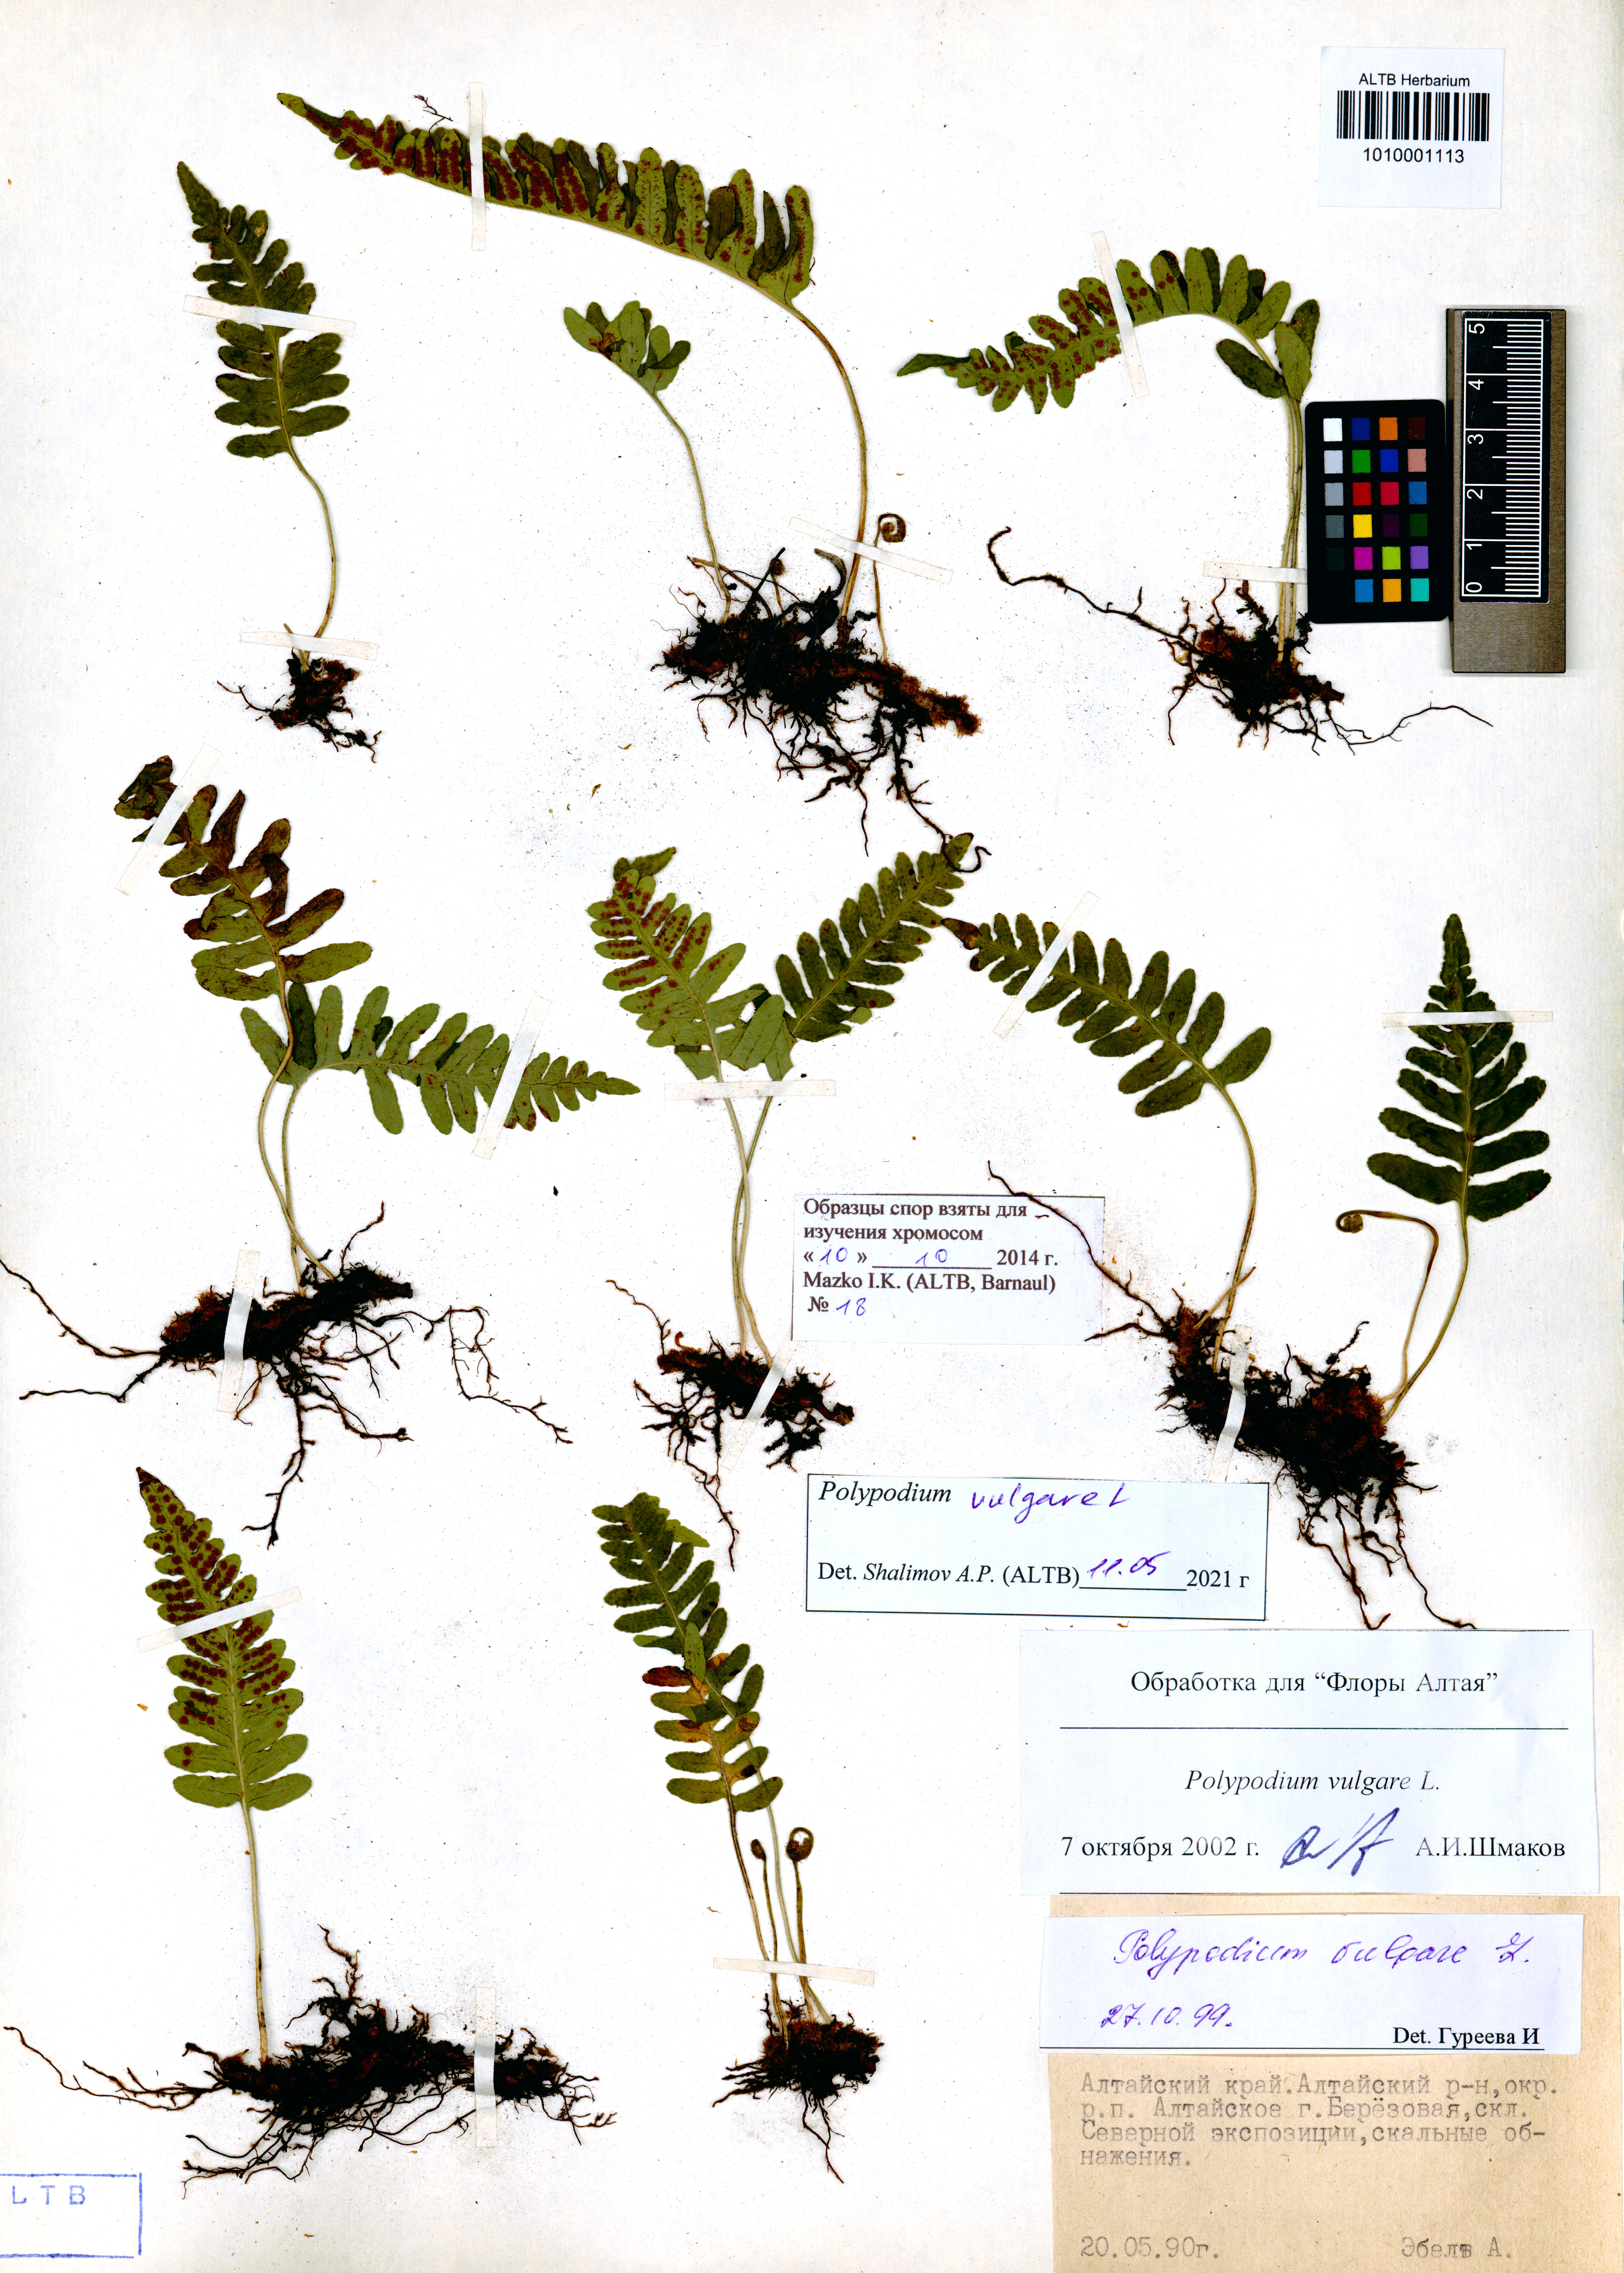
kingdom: Plantae
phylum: Tracheophyta
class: Polypodiopsida
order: Polypodiales
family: Polypodiaceae
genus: Polypodium
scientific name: Polypodium vulgare
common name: Common polypody
